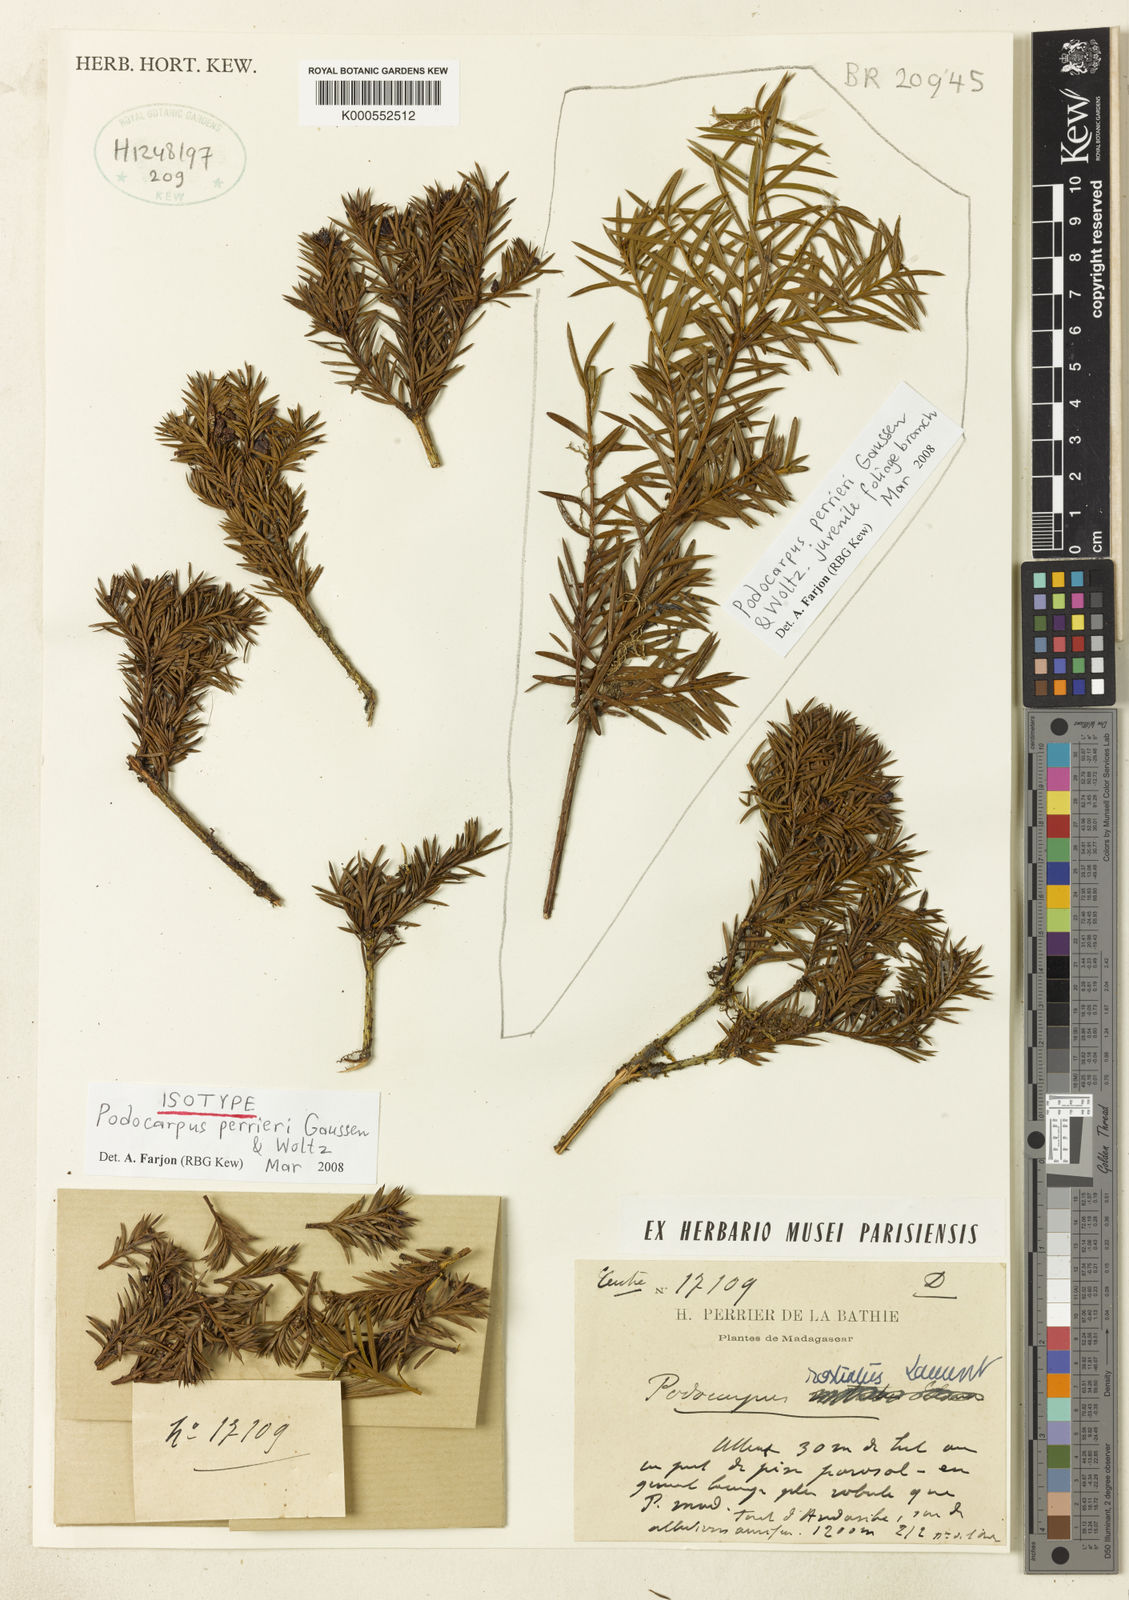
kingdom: Plantae
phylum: Tracheophyta
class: Pinopsida
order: Pinales
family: Podocarpaceae
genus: Podocarpus
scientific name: Podocarpus perrieri
